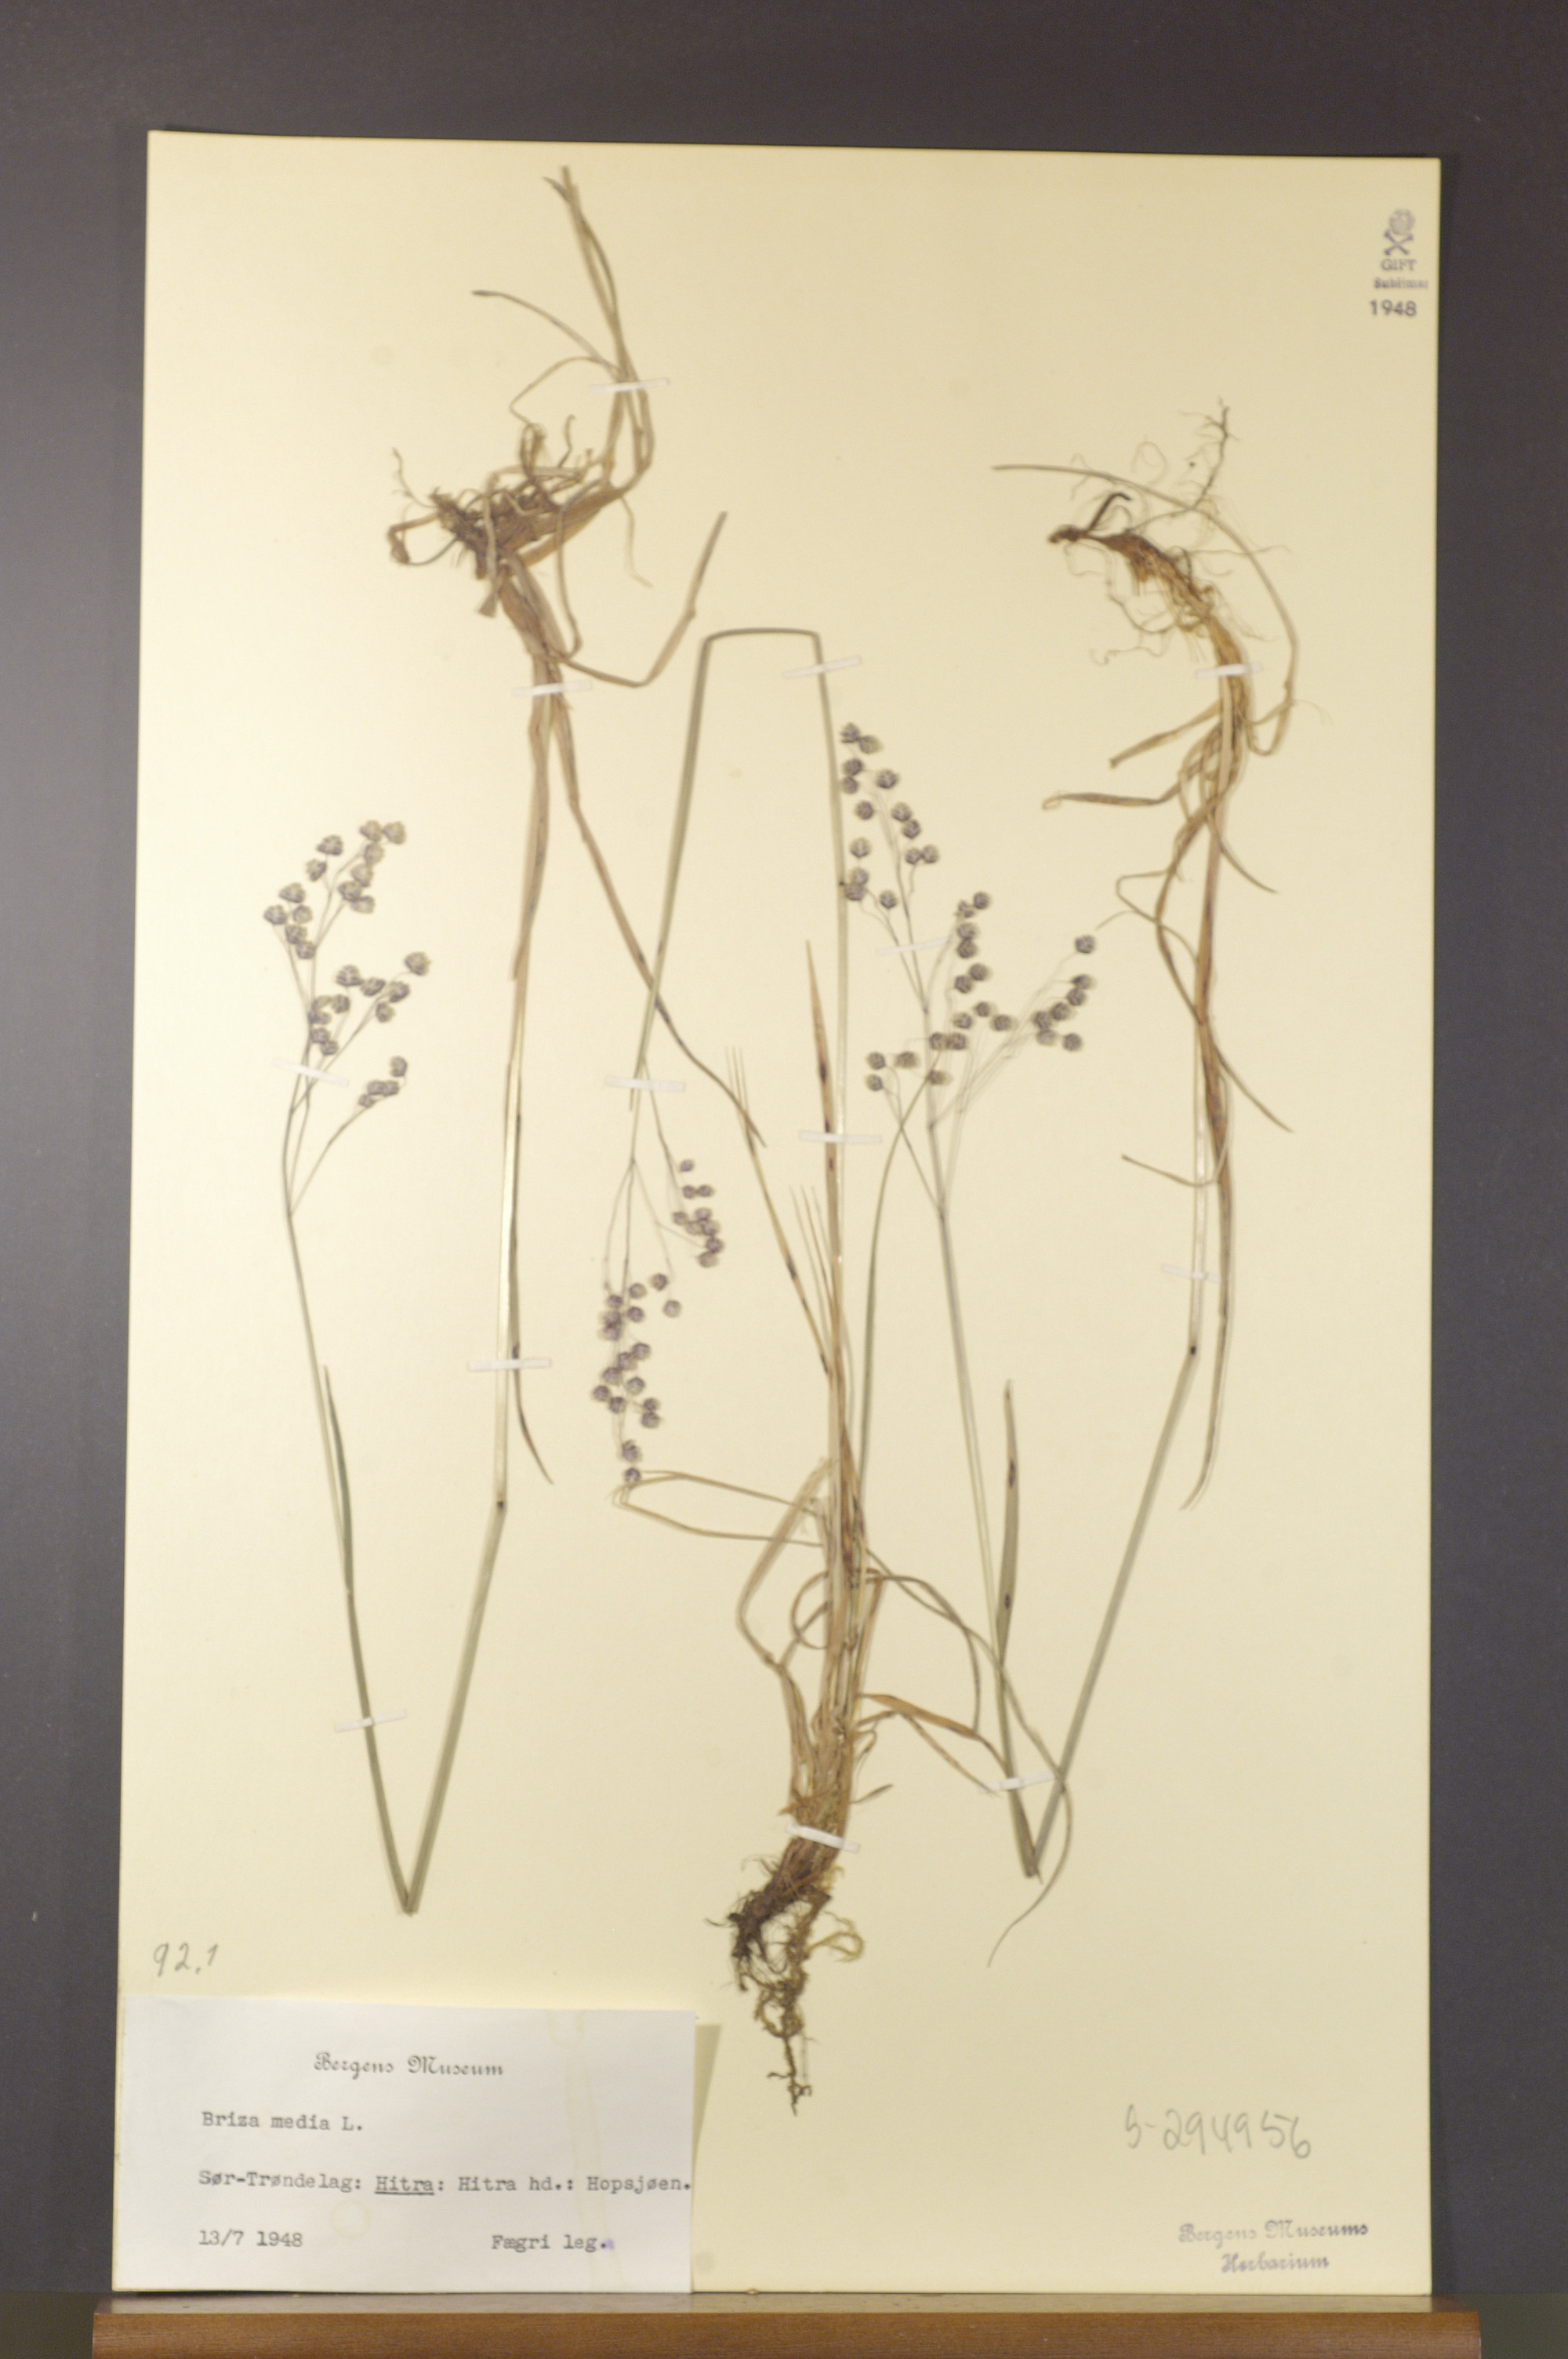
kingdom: Plantae
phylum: Tracheophyta
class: Liliopsida
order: Poales
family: Poaceae
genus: Briza
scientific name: Briza media
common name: Quaking grass
